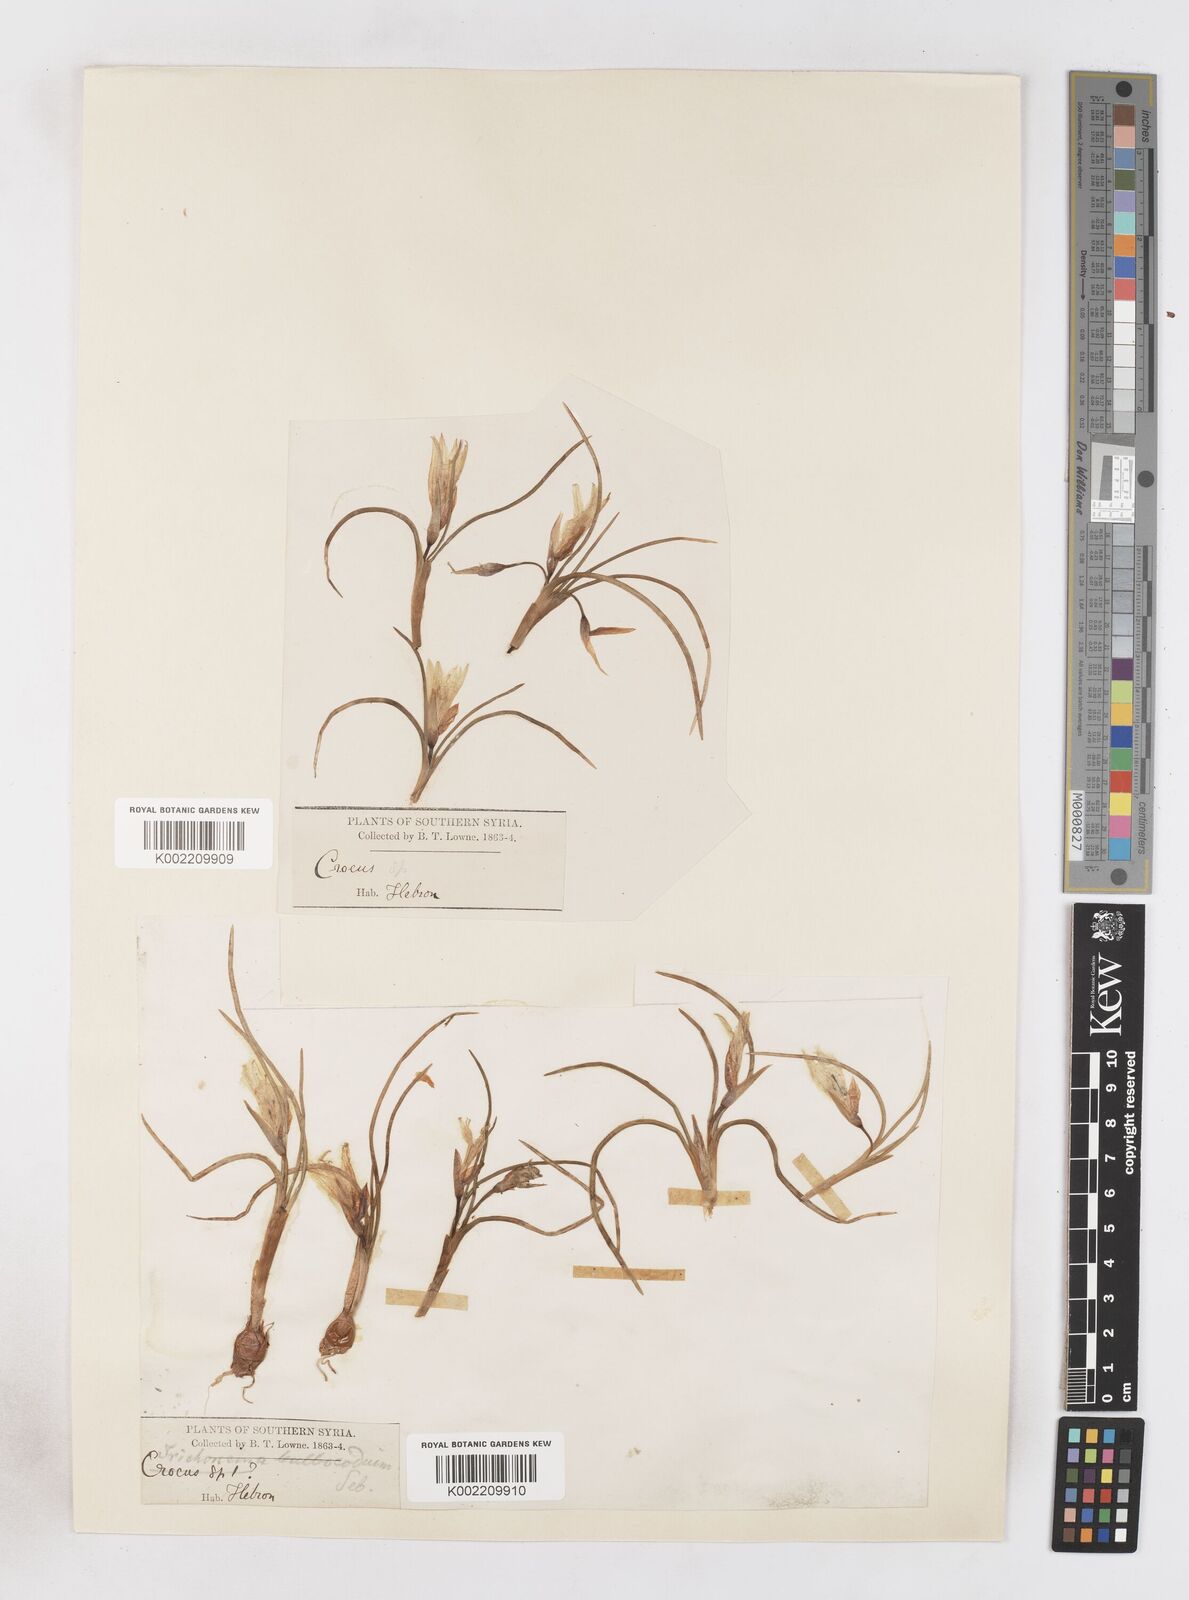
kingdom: Plantae
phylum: Tracheophyta
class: Liliopsida
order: Asparagales
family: Iridaceae
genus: Romulea
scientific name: Romulea bulbocodium
